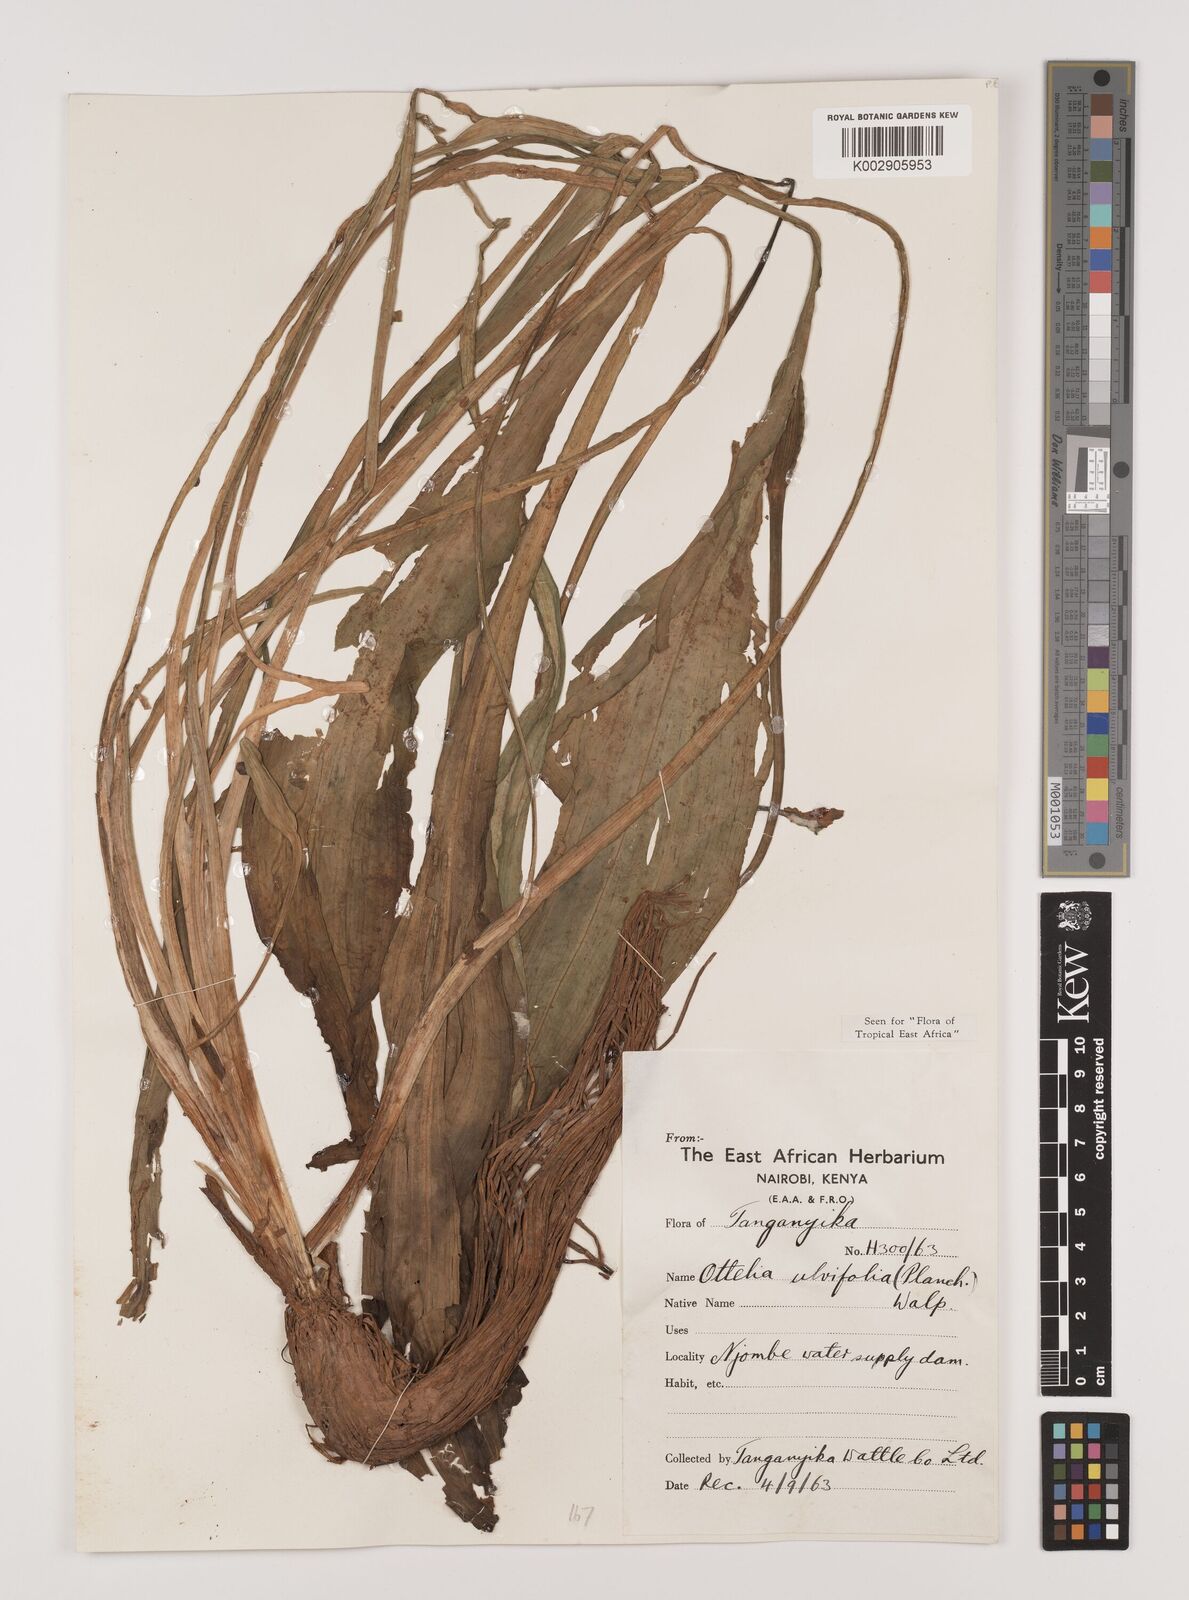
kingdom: Plantae
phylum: Tracheophyta
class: Liliopsida
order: Alismatales
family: Hydrocharitaceae
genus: Ottelia
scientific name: Ottelia ulvifolia
